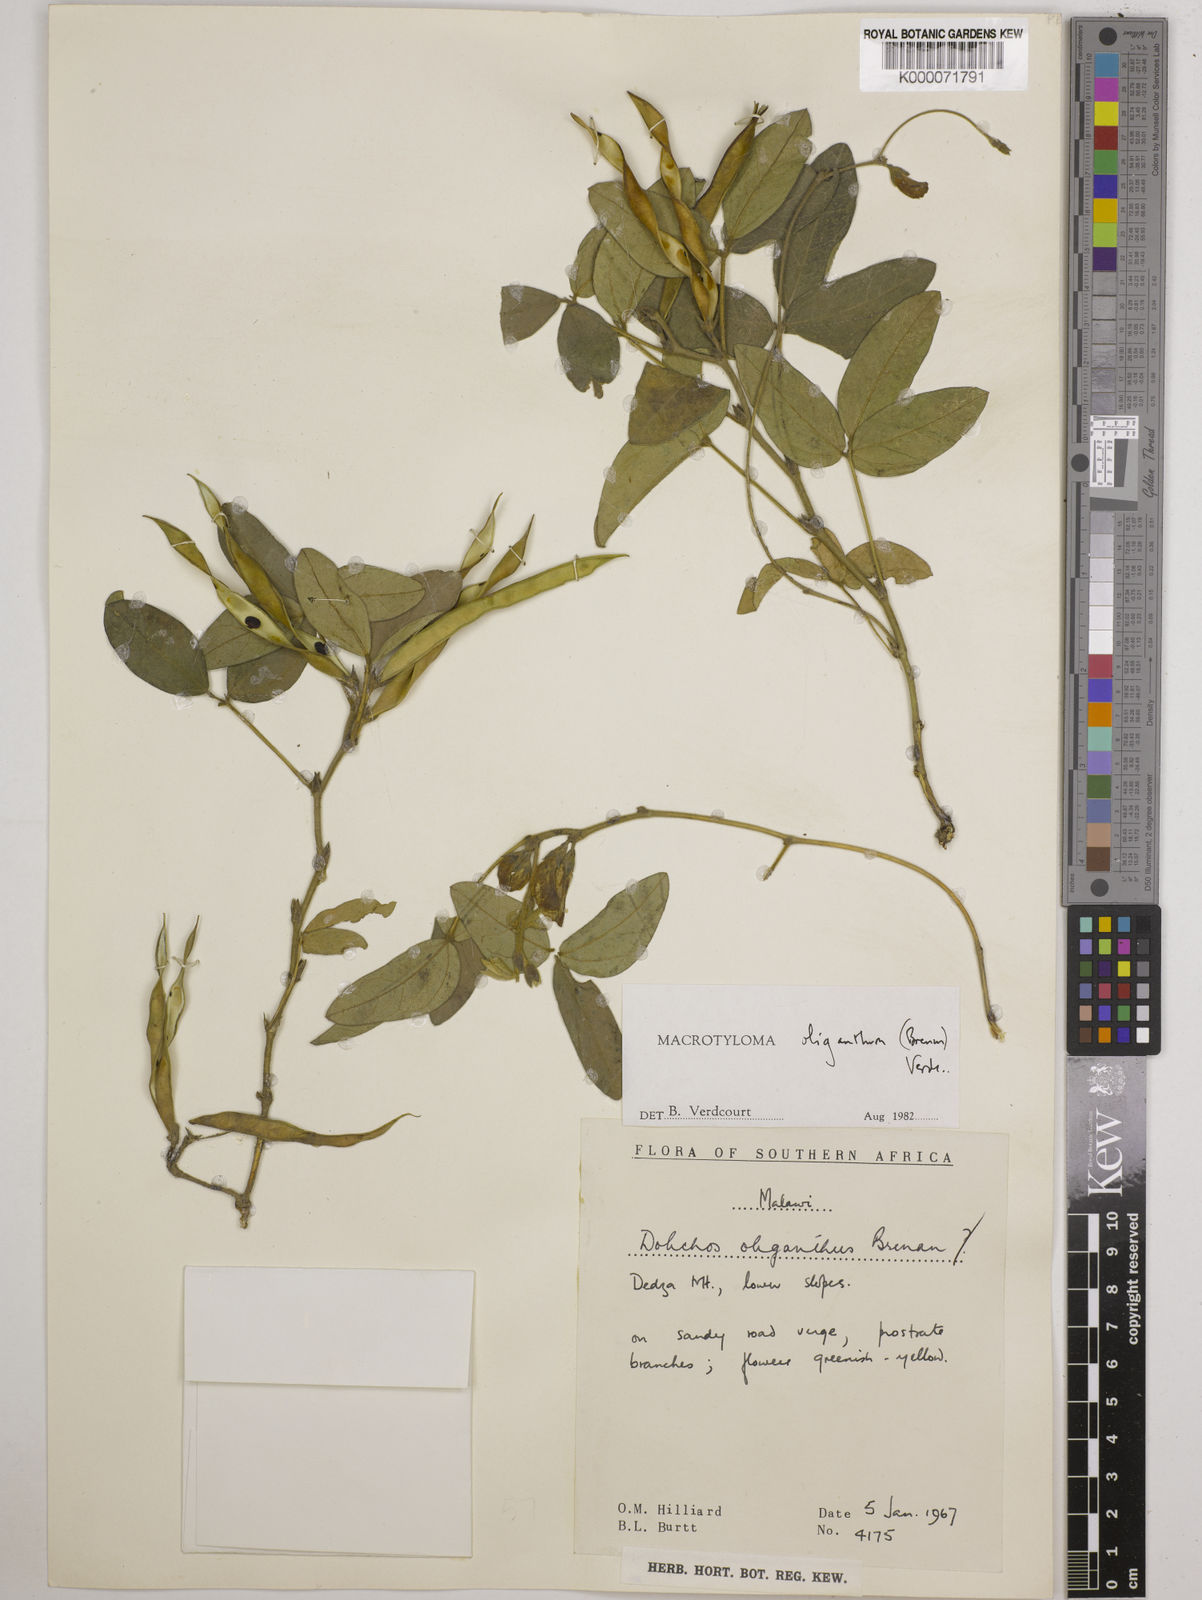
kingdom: Plantae
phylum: Tracheophyta
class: Magnoliopsida
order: Fabales
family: Fabaceae
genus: Macrotyloma
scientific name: Macrotyloma oliganthum
